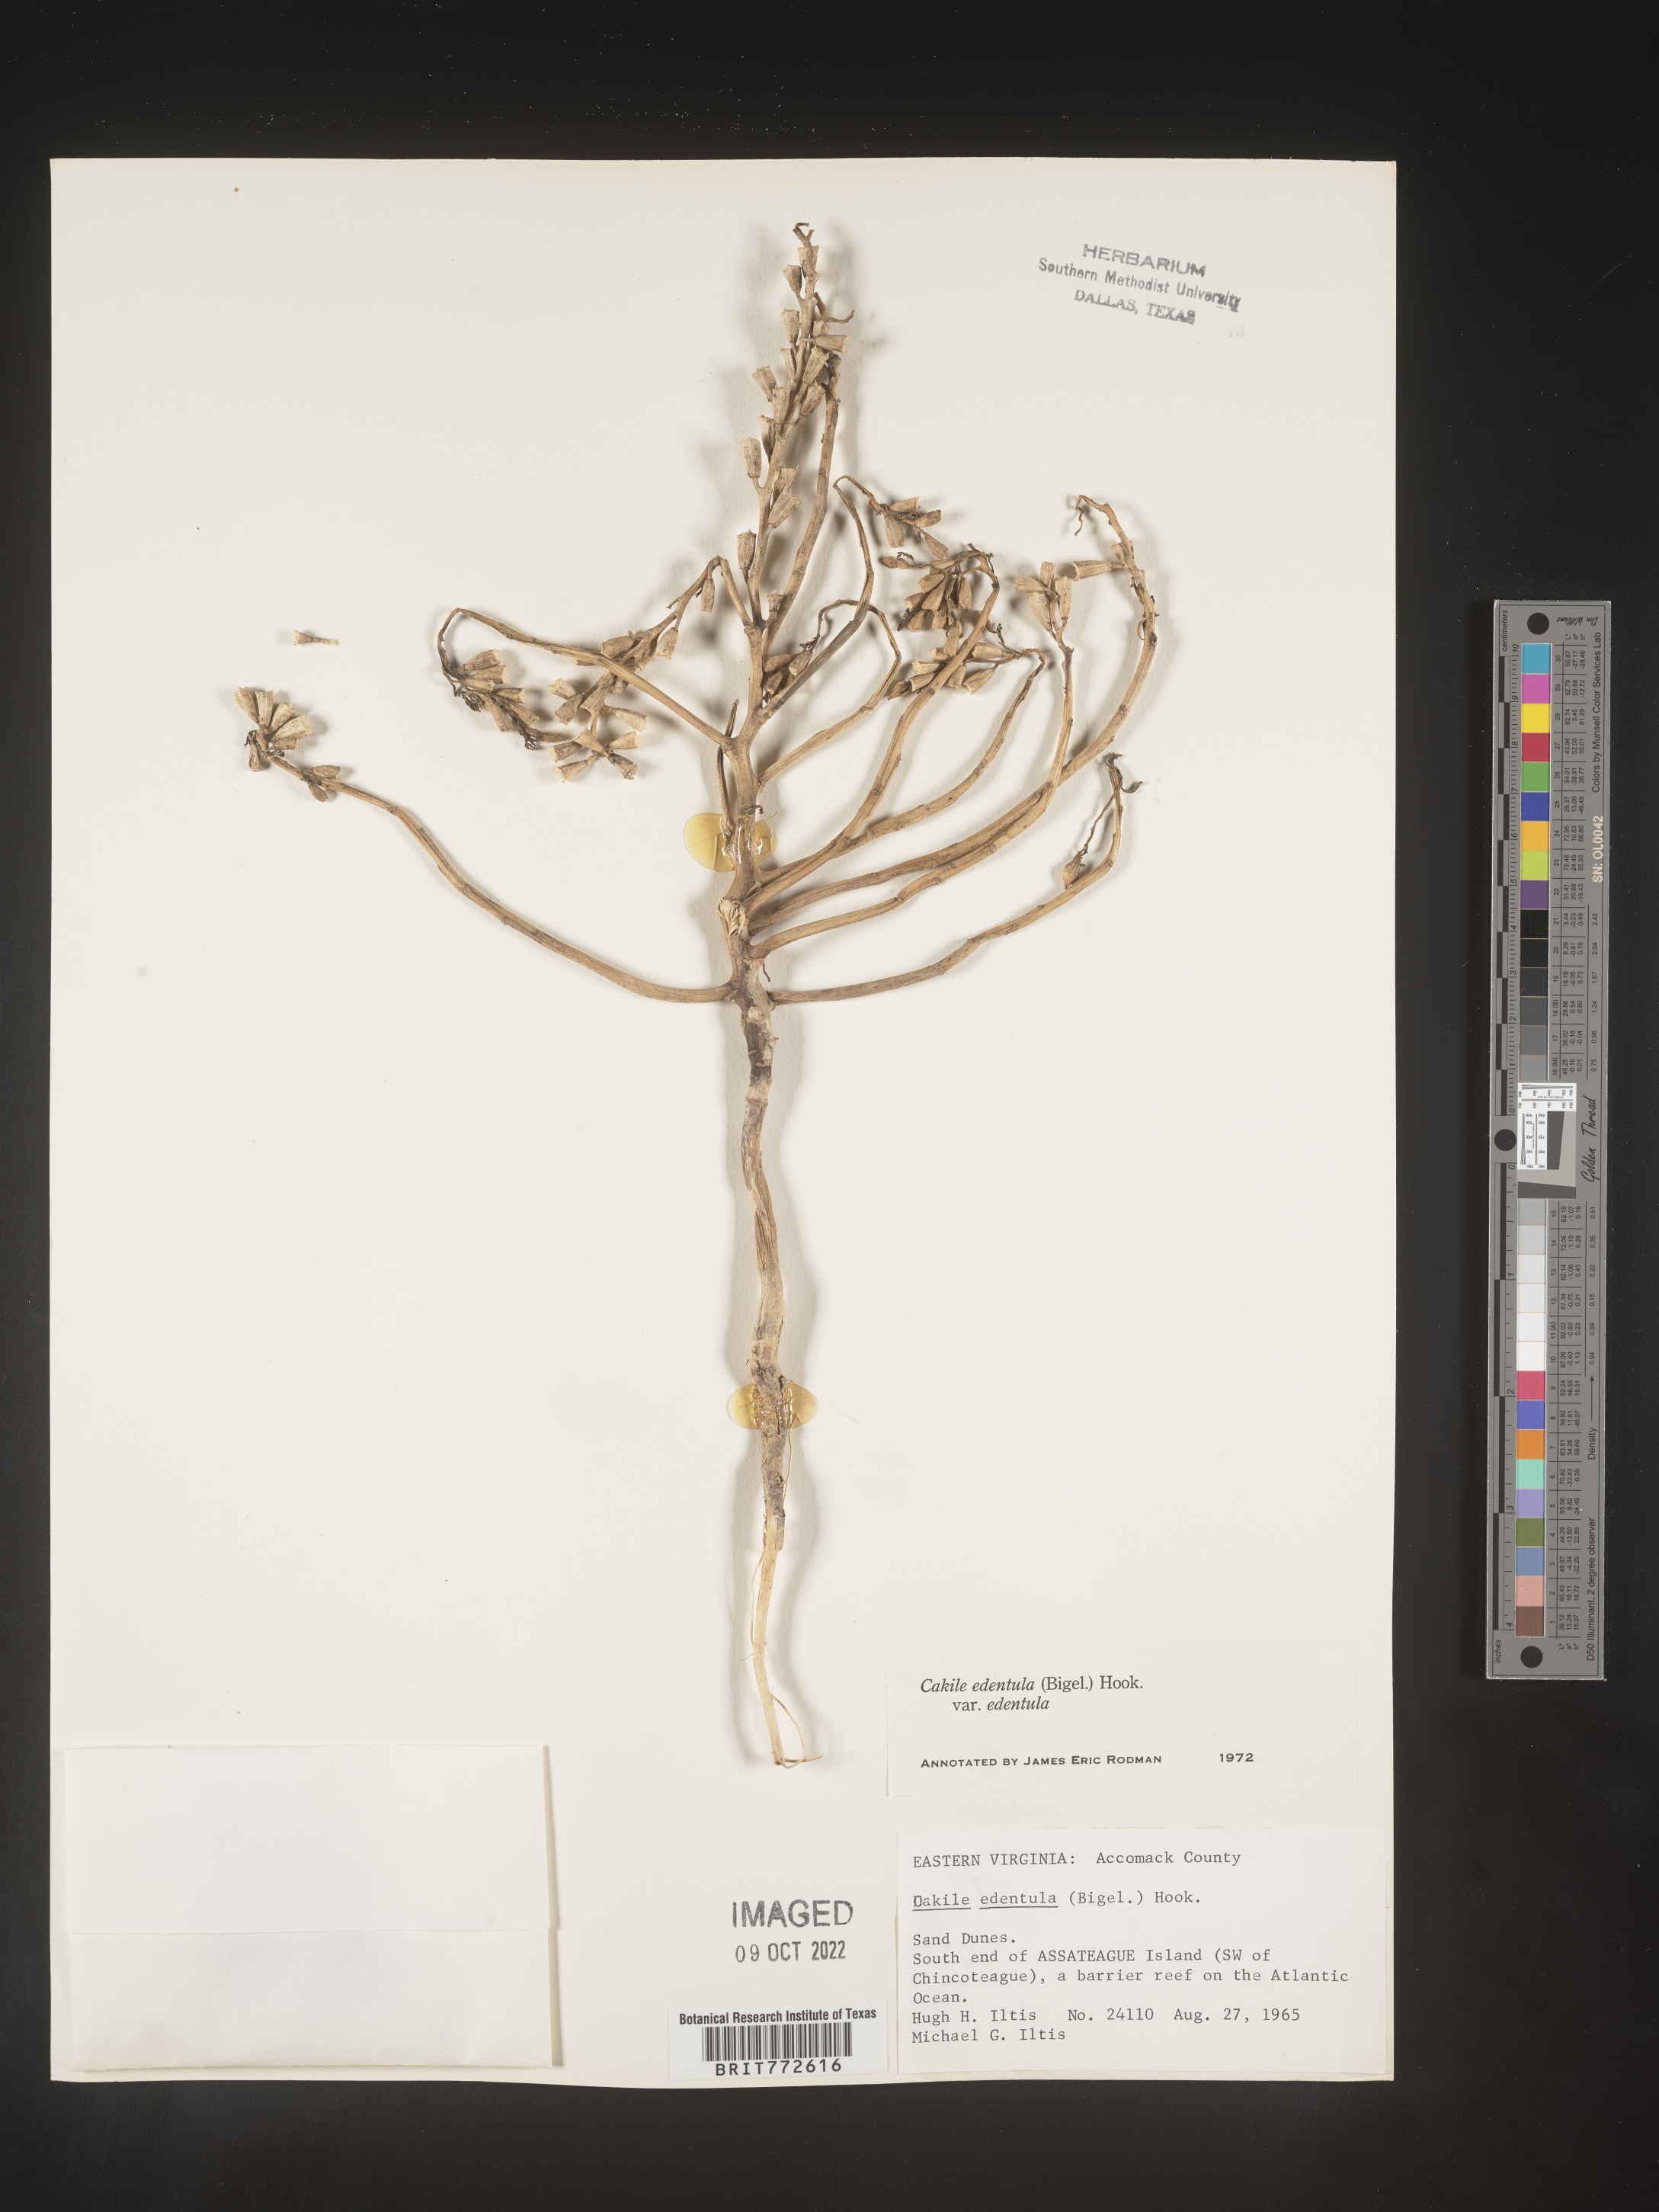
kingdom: Plantae
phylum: Tracheophyta
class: Magnoliopsida
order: Brassicales
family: Brassicaceae
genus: Cakile
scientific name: Cakile edentula
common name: American sea rocket
